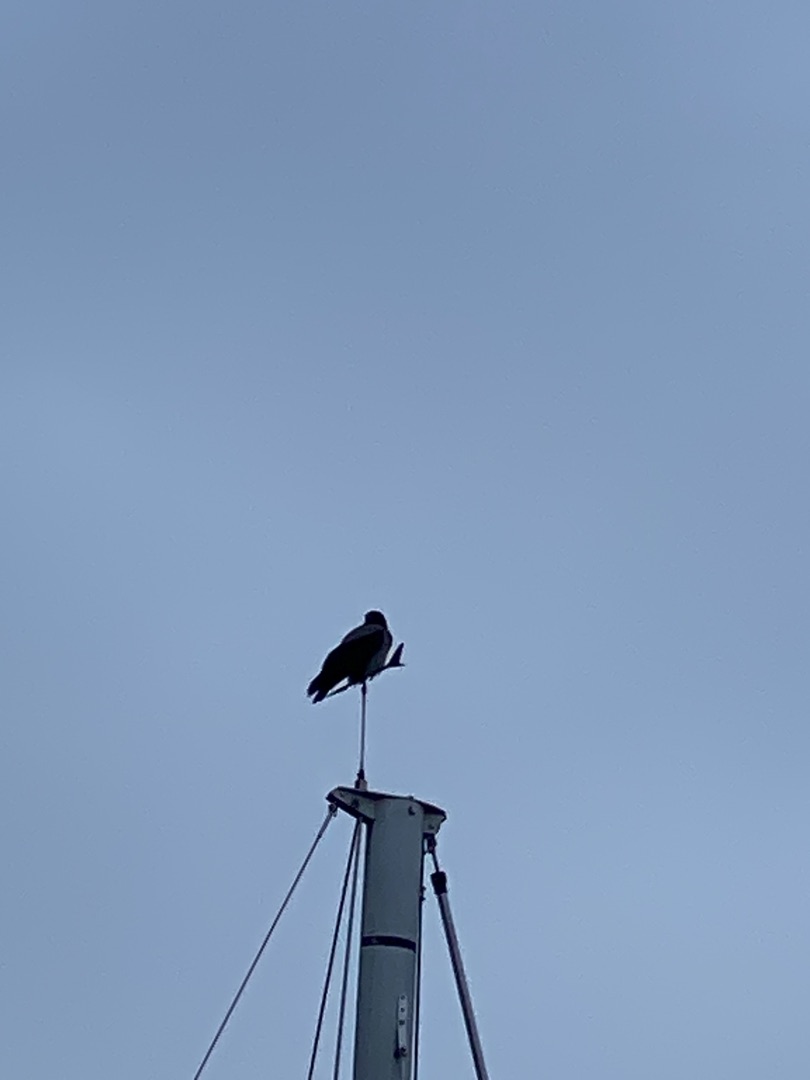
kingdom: Animalia
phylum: Chordata
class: Aves
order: Passeriformes
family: Corvidae
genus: Corvus
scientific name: Corvus cornix
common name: Gråkrage
